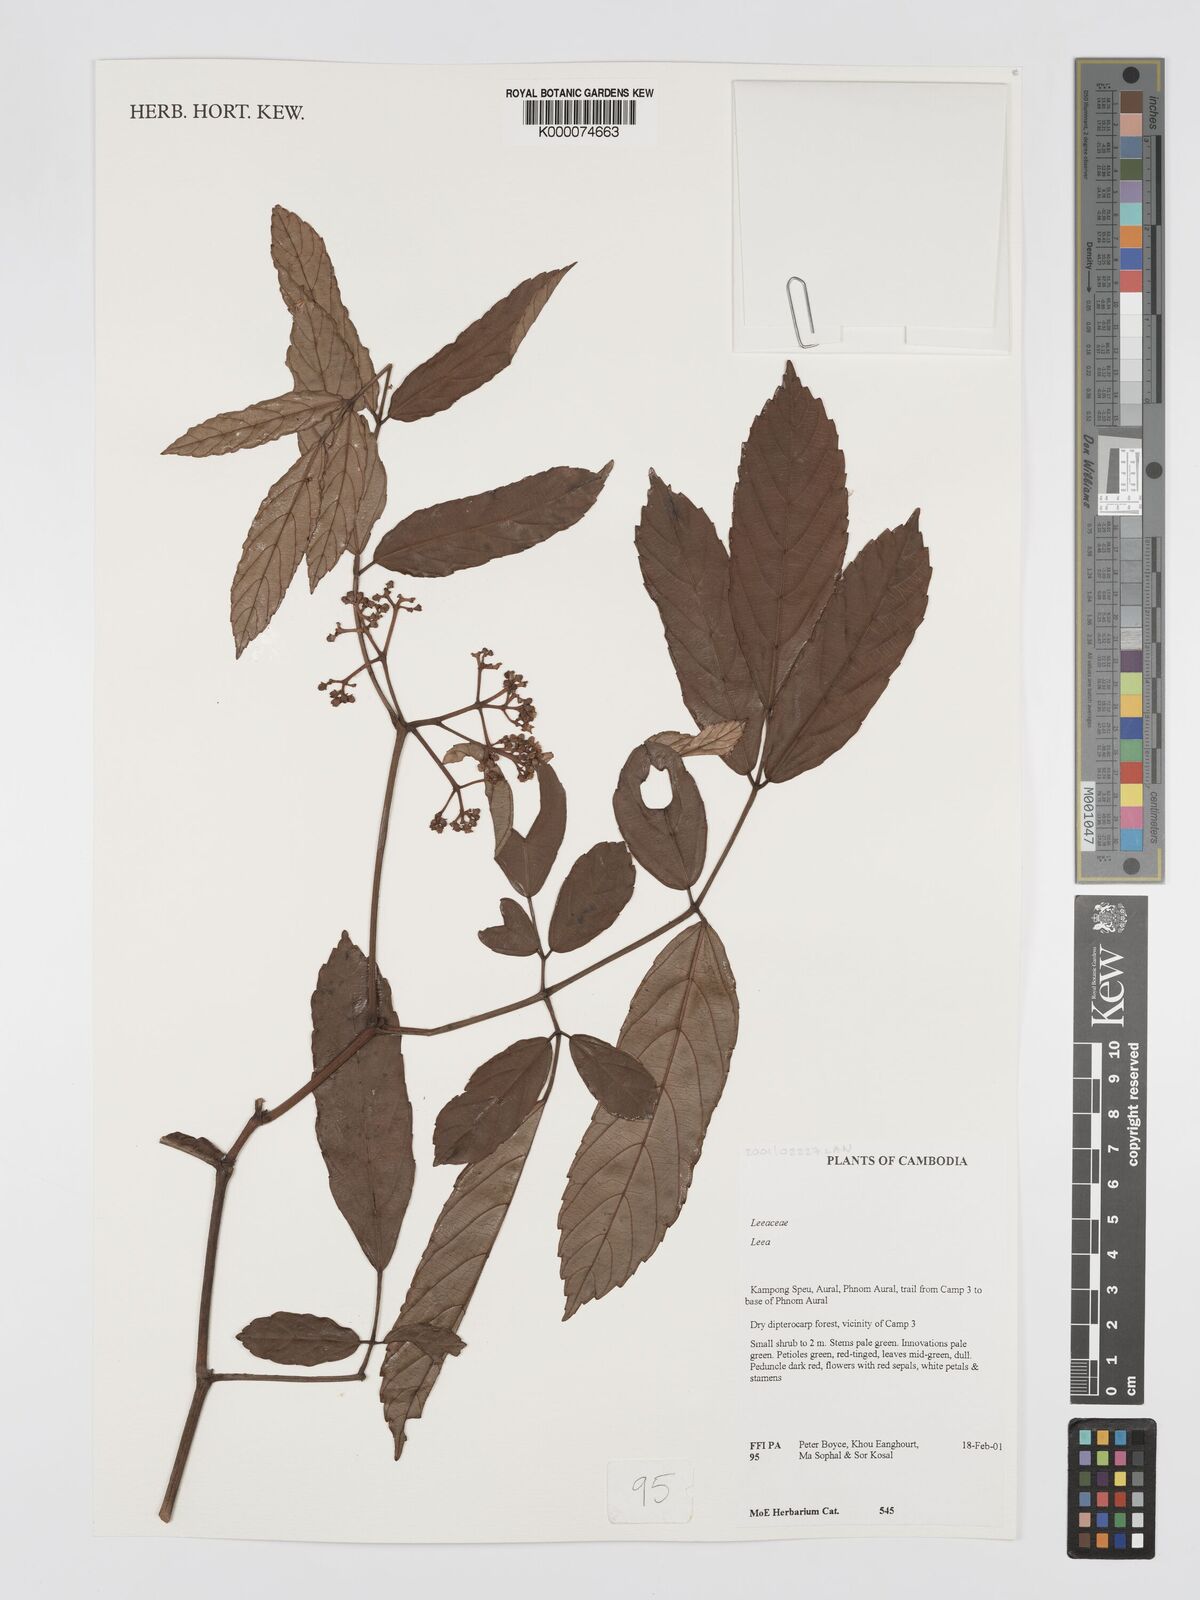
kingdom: Plantae
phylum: Tracheophyta
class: Magnoliopsida
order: Vitales
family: Vitaceae
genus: Leea
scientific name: Leea
